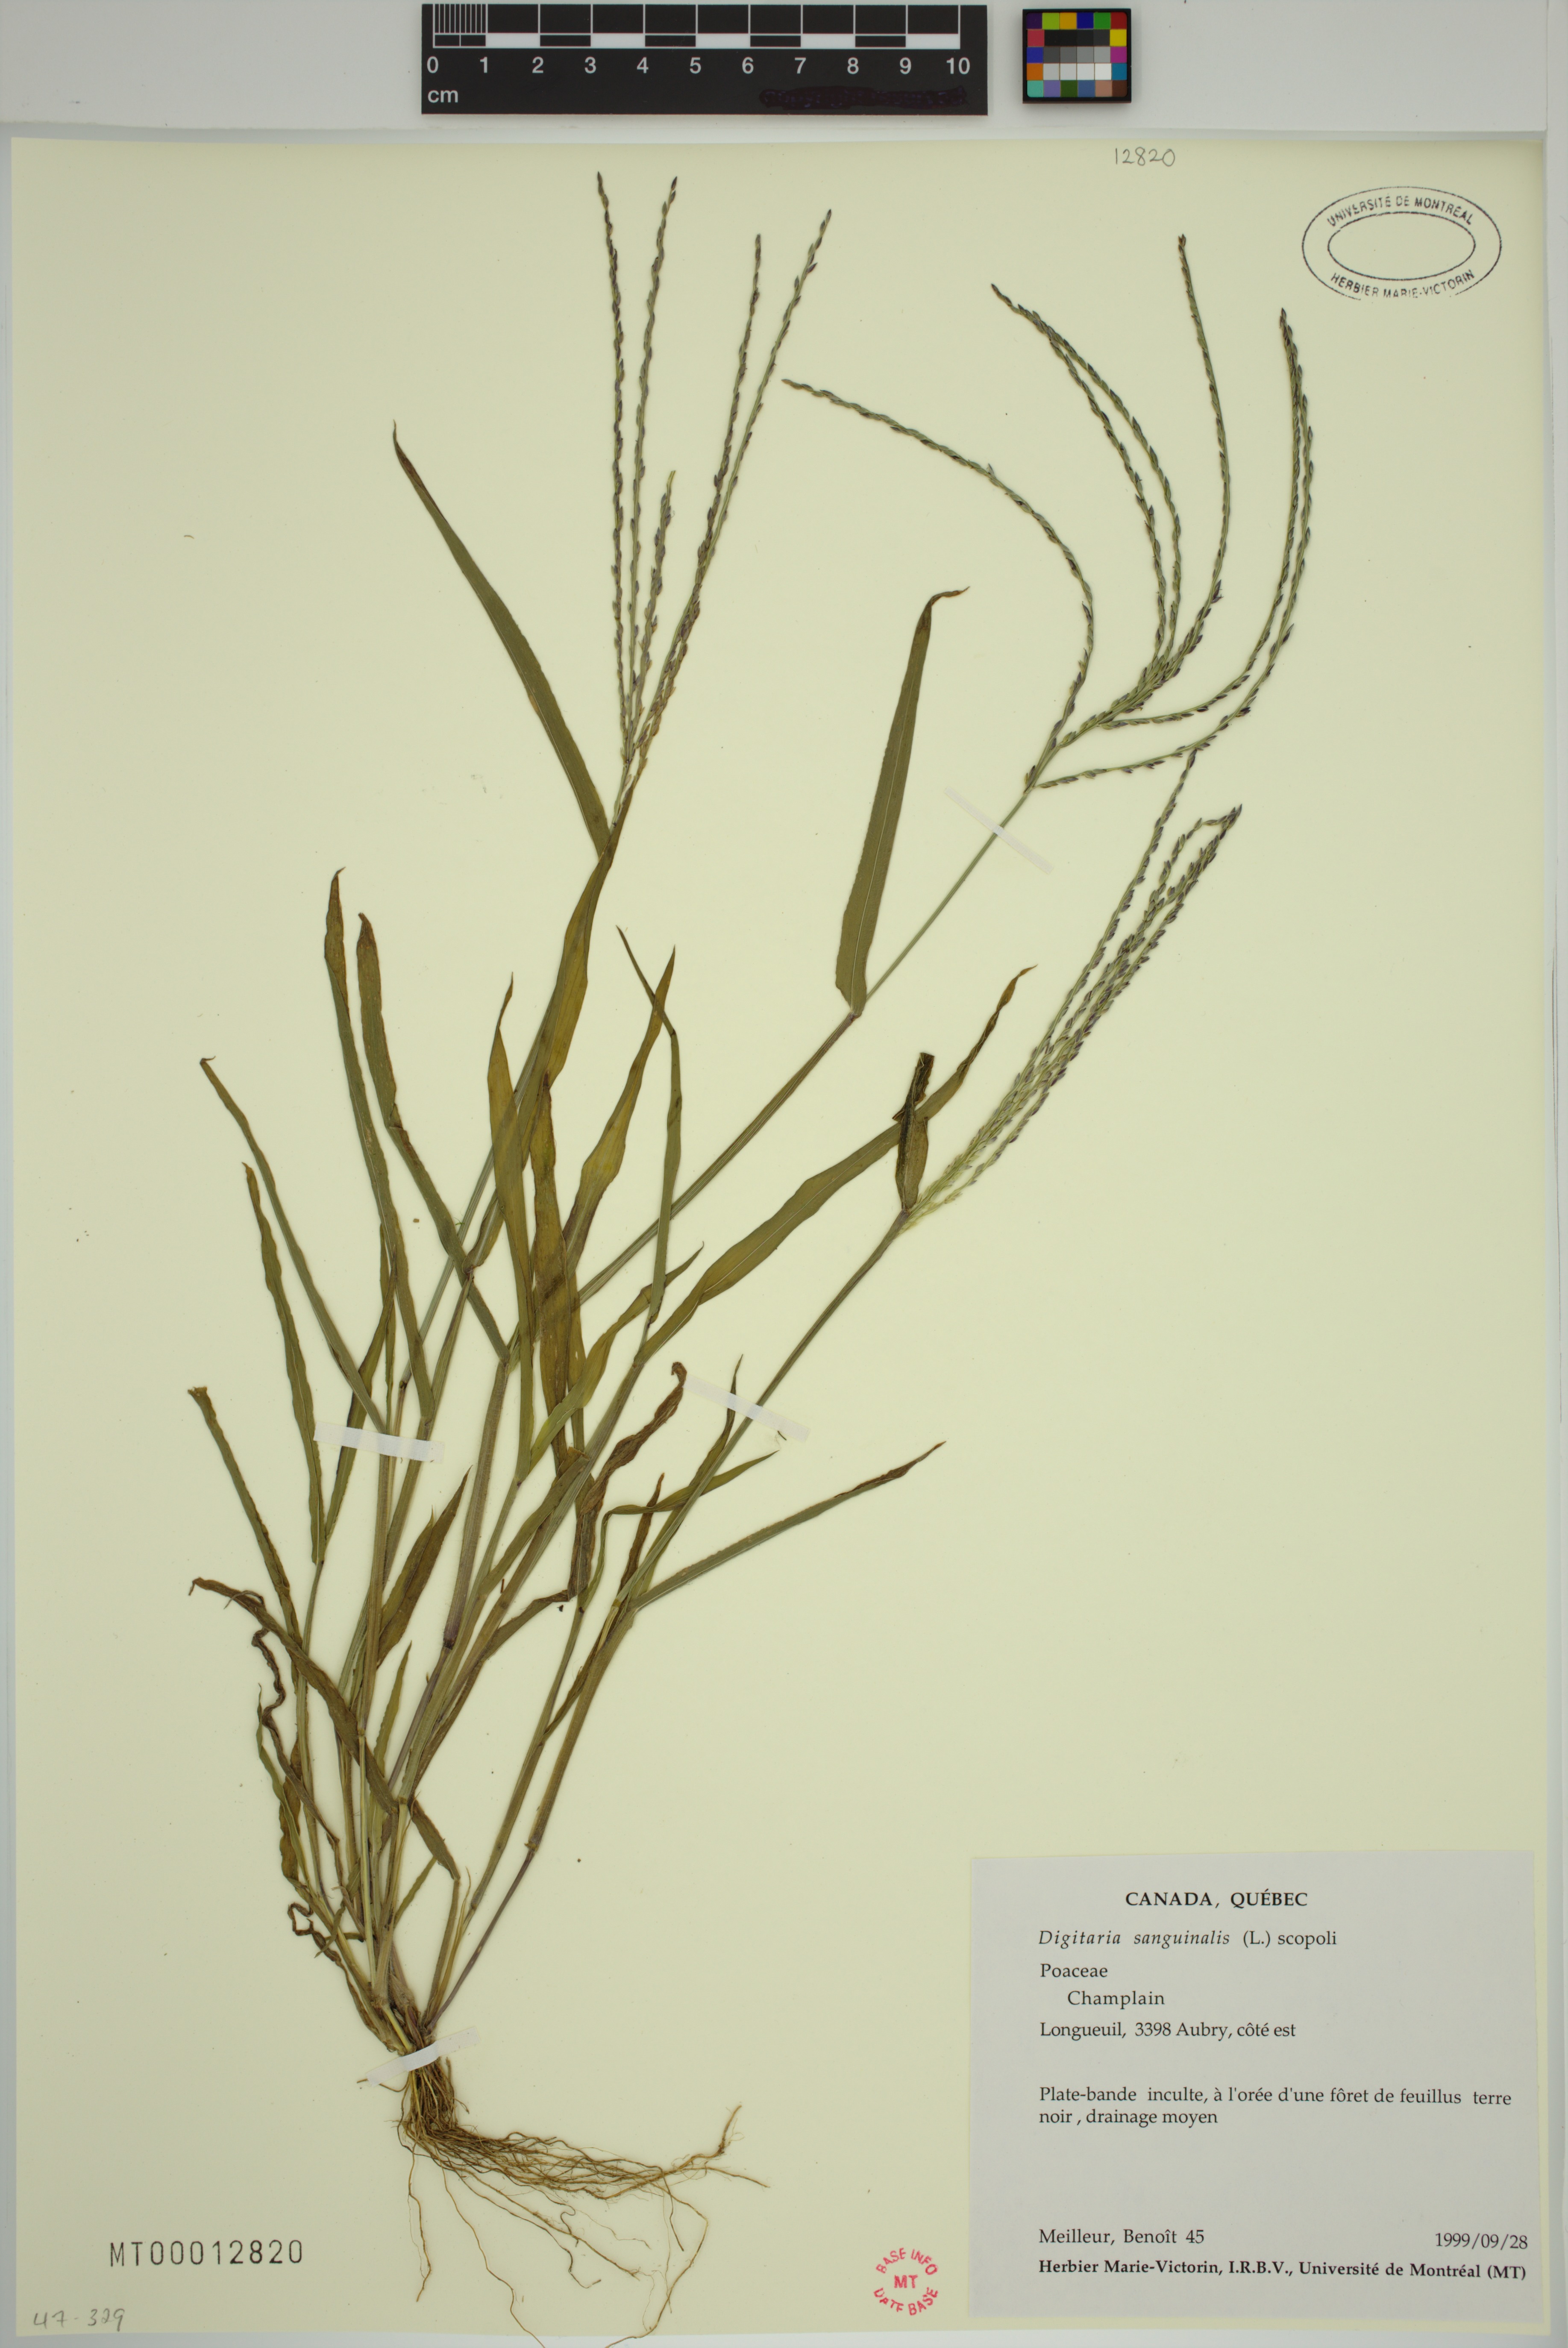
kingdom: Plantae
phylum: Tracheophyta
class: Liliopsida
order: Poales
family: Poaceae
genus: Digitaria
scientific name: Digitaria sanguinalis
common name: Hairy crabgrass
